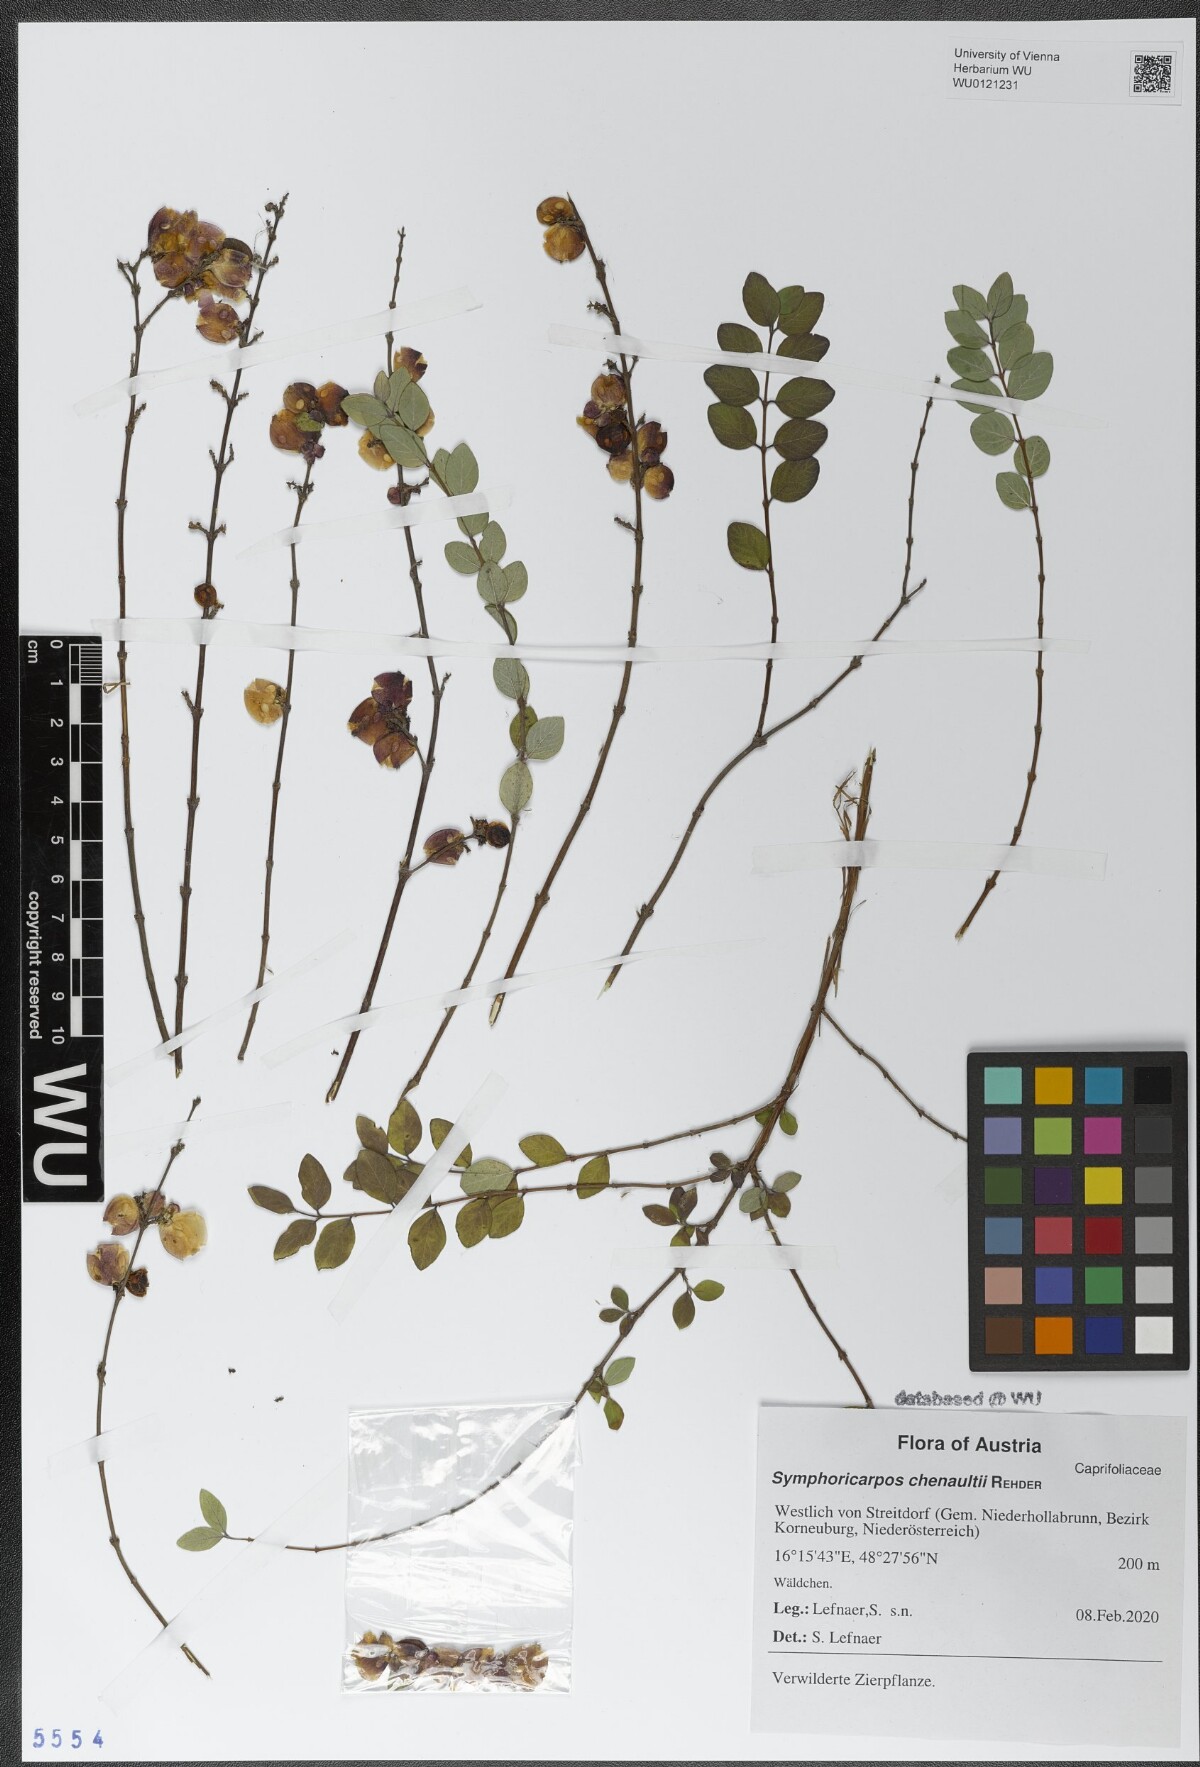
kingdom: Plantae
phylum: Tracheophyta
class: Magnoliopsida
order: Dipsacales
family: Caprifoliaceae
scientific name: Caprifoliaceae
